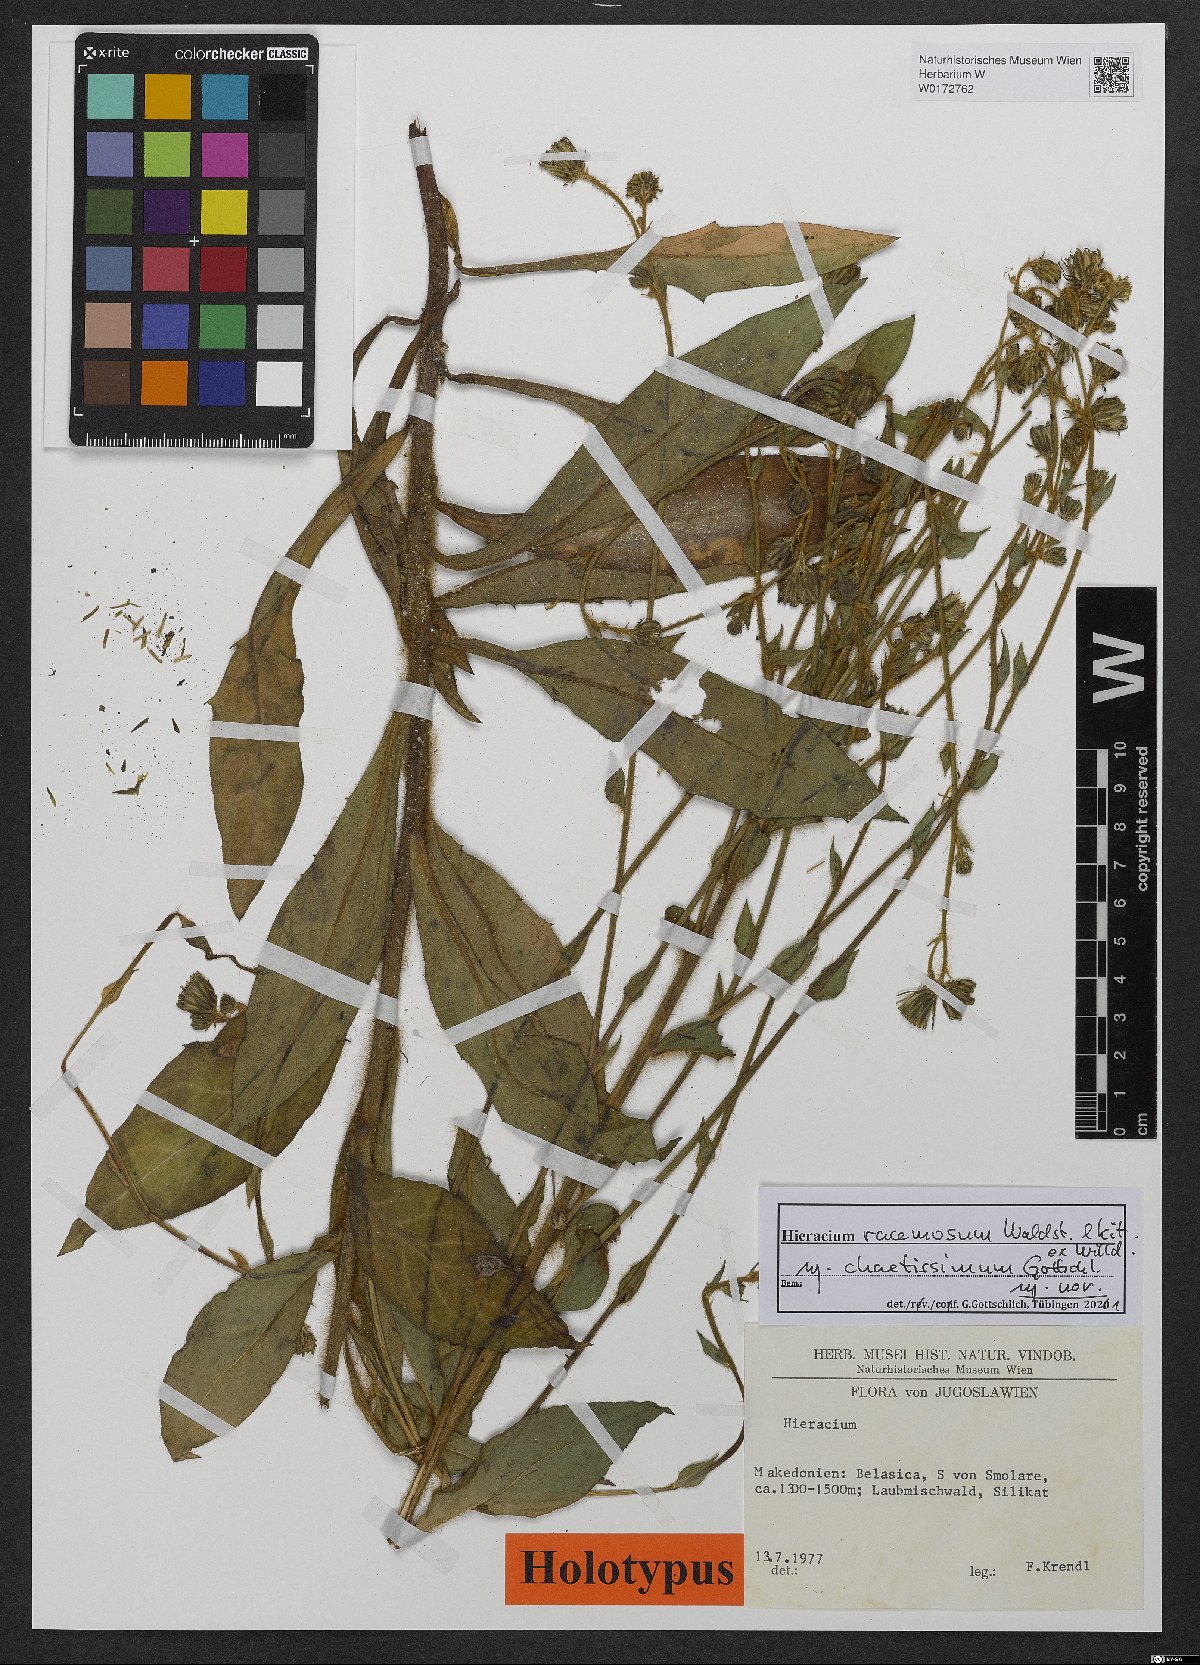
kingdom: Plantae
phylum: Tracheophyta
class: Magnoliopsida
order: Asterales
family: Asteraceae
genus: Hieracium
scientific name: Hieracium racemosum
